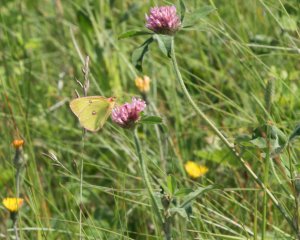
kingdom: Animalia
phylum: Arthropoda
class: Insecta
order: Lepidoptera
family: Pieridae
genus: Colias
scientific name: Colias philodice
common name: Clouded Sulphur
